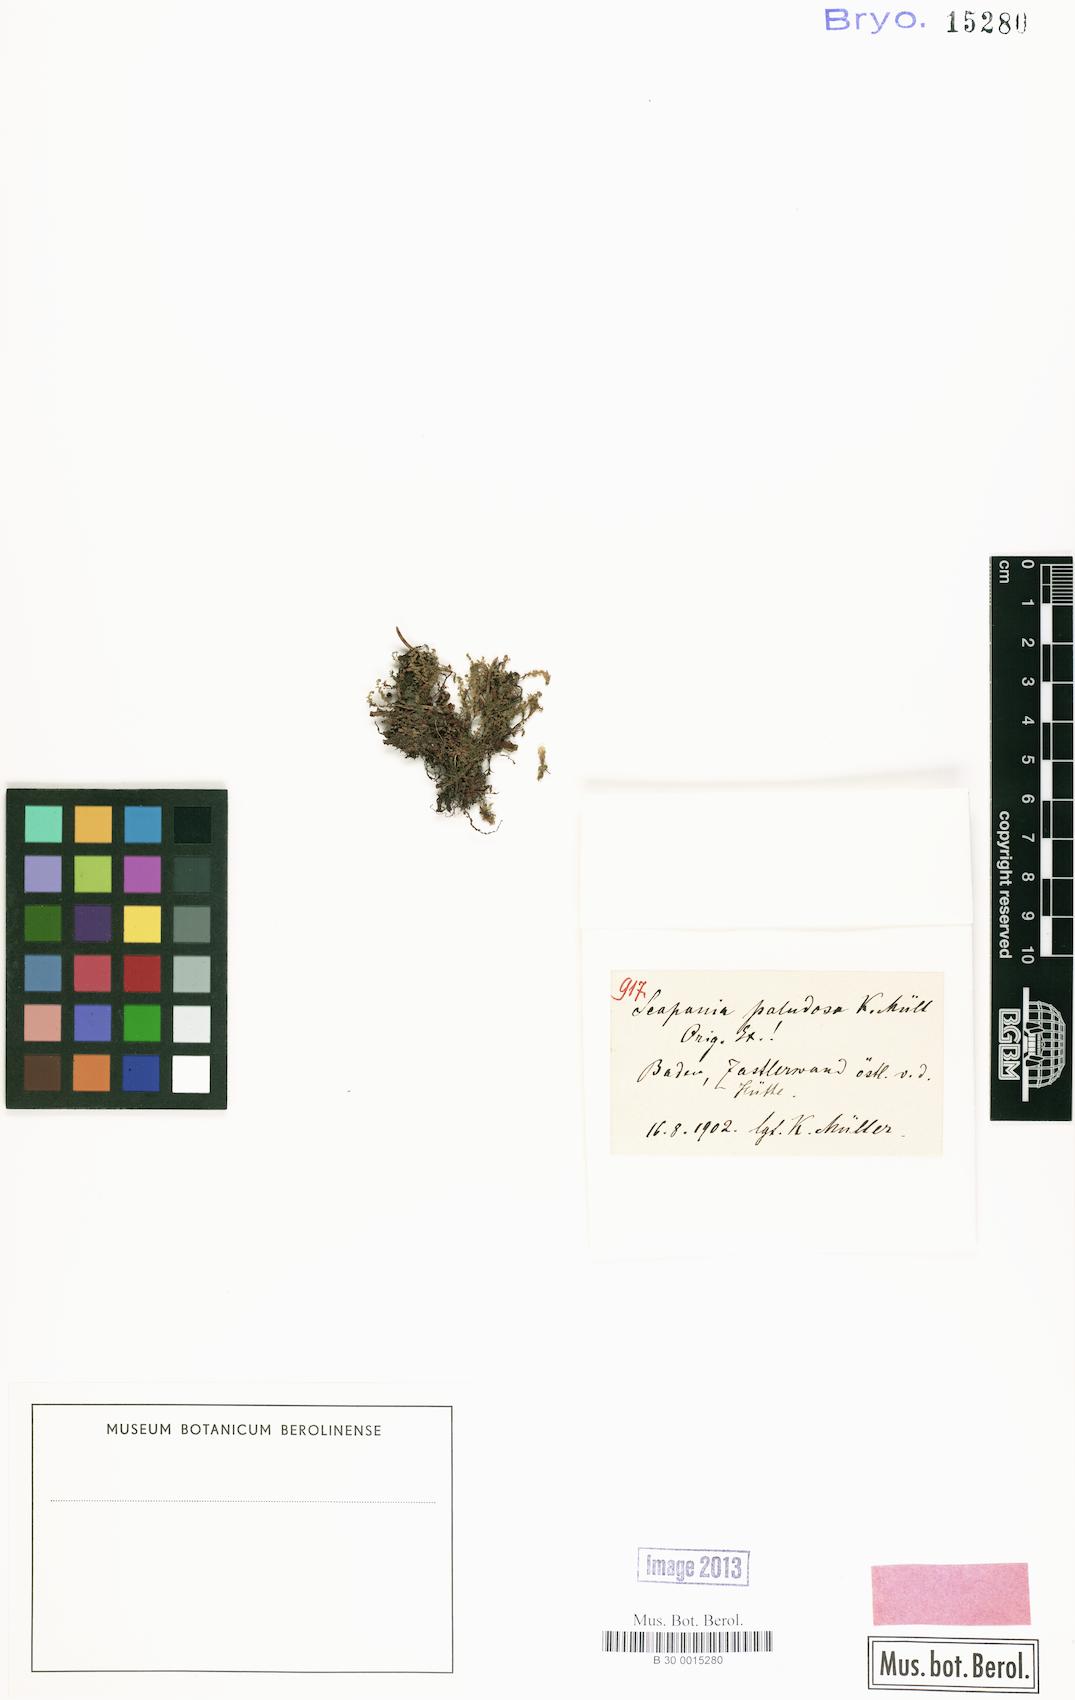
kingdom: Plantae
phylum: Marchantiophyta
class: Jungermanniopsida
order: Jungermanniales
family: Scapaniaceae
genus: Scapania
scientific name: Scapania paludosa
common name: Floppy earwort
